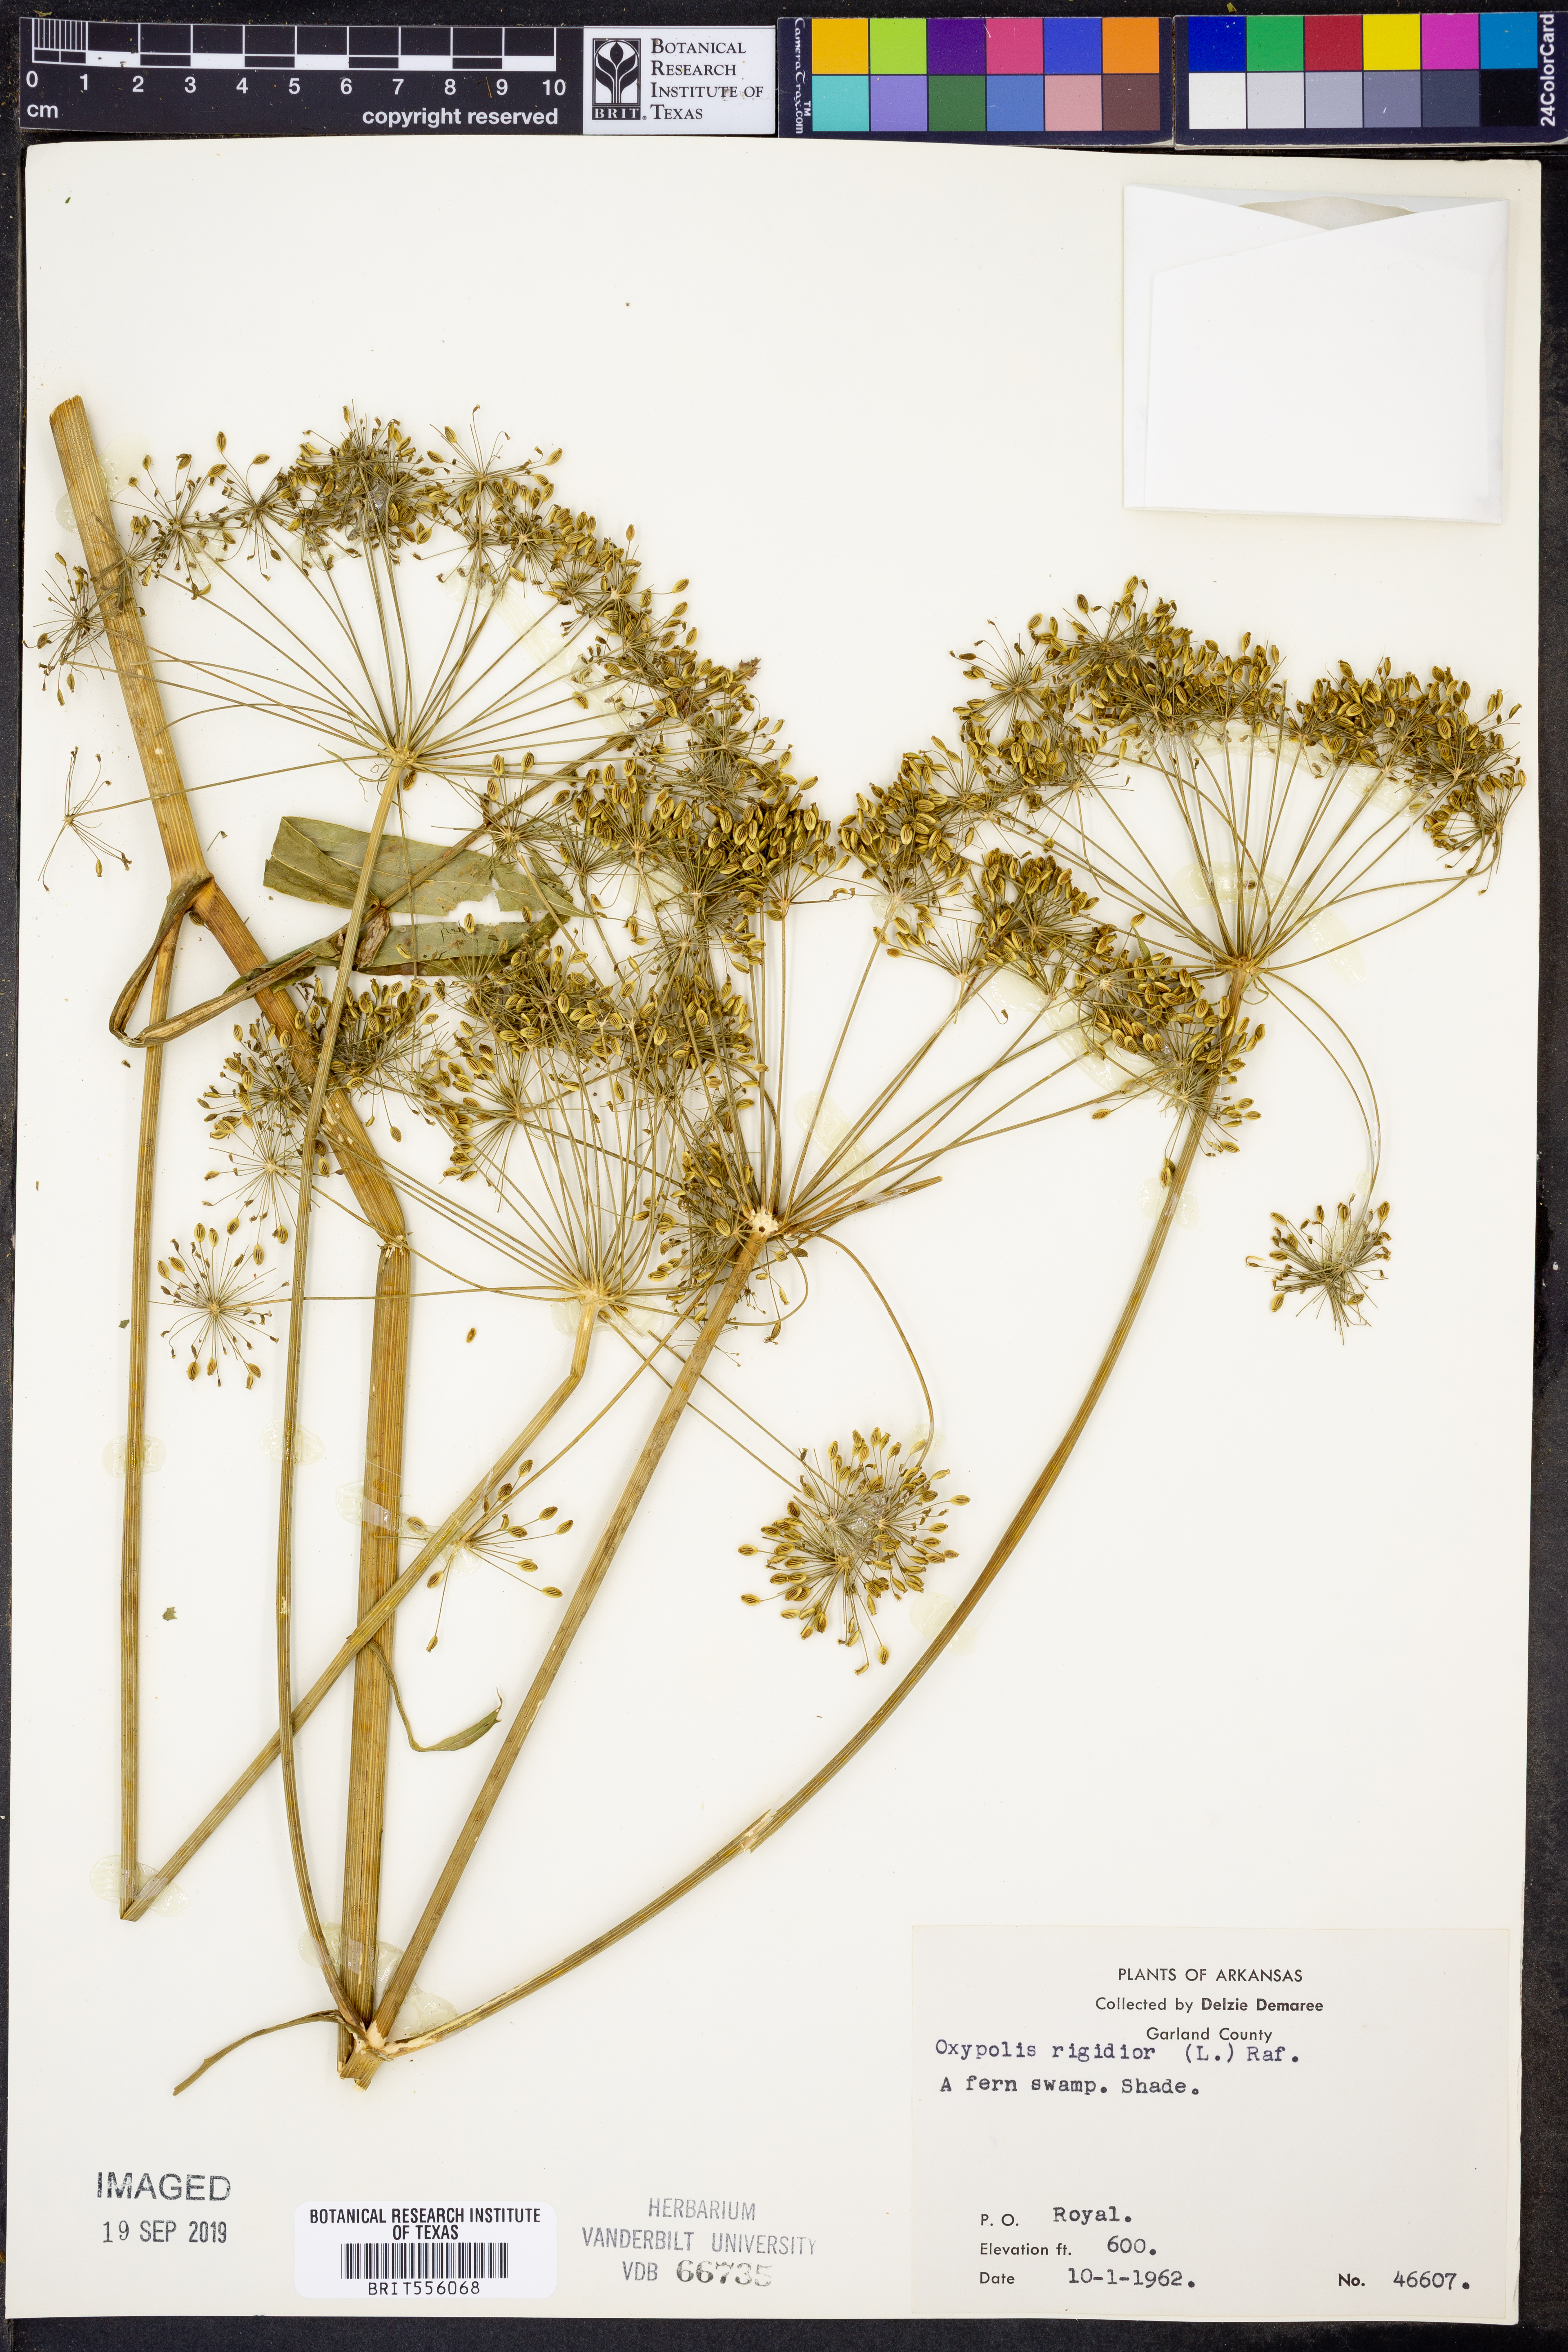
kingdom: Plantae
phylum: Tracheophyta
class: Magnoliopsida
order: Apiales
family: Apiaceae
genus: Oxypolis
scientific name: Oxypolis rigidior
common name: Cowbane
